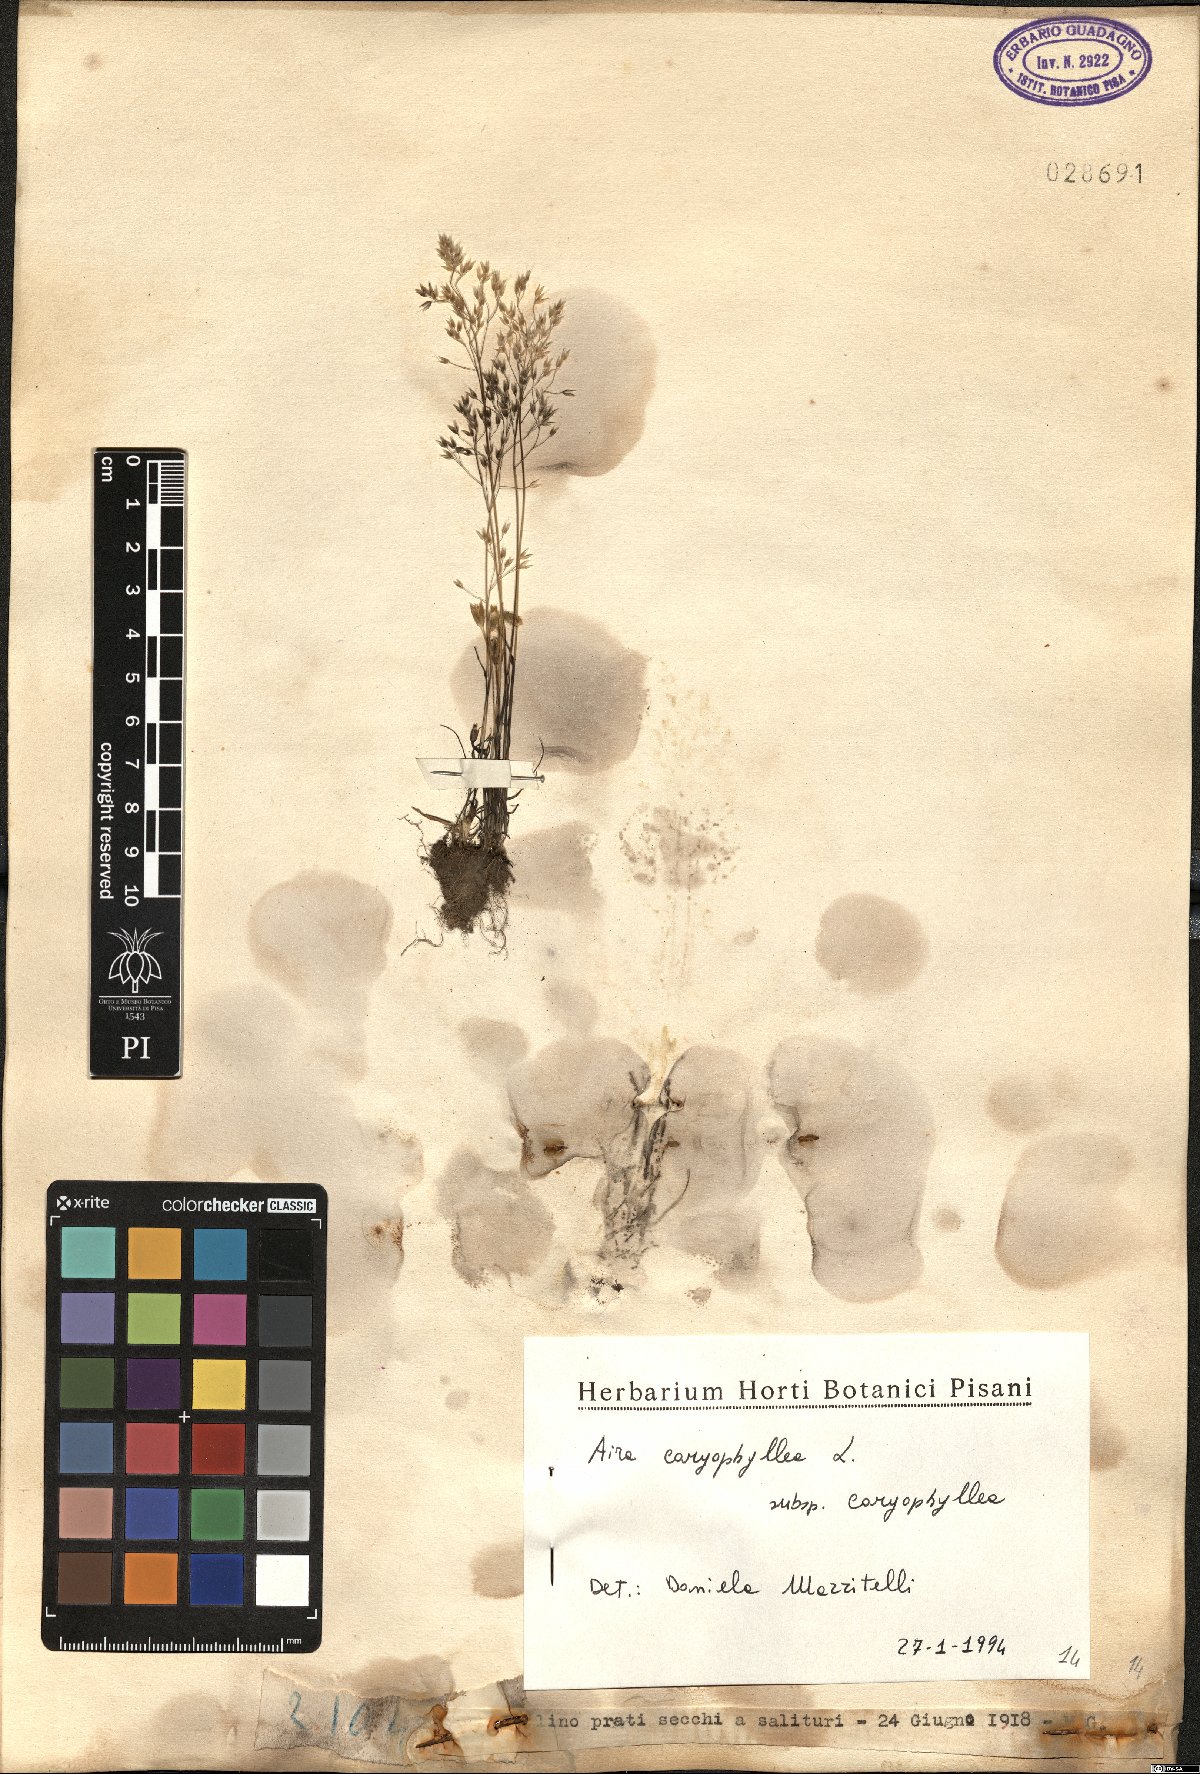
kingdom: Plantae
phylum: Tracheophyta
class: Liliopsida
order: Poales
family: Poaceae
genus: Aira
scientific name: Aira caryophyllea
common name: Silver hairgrass
